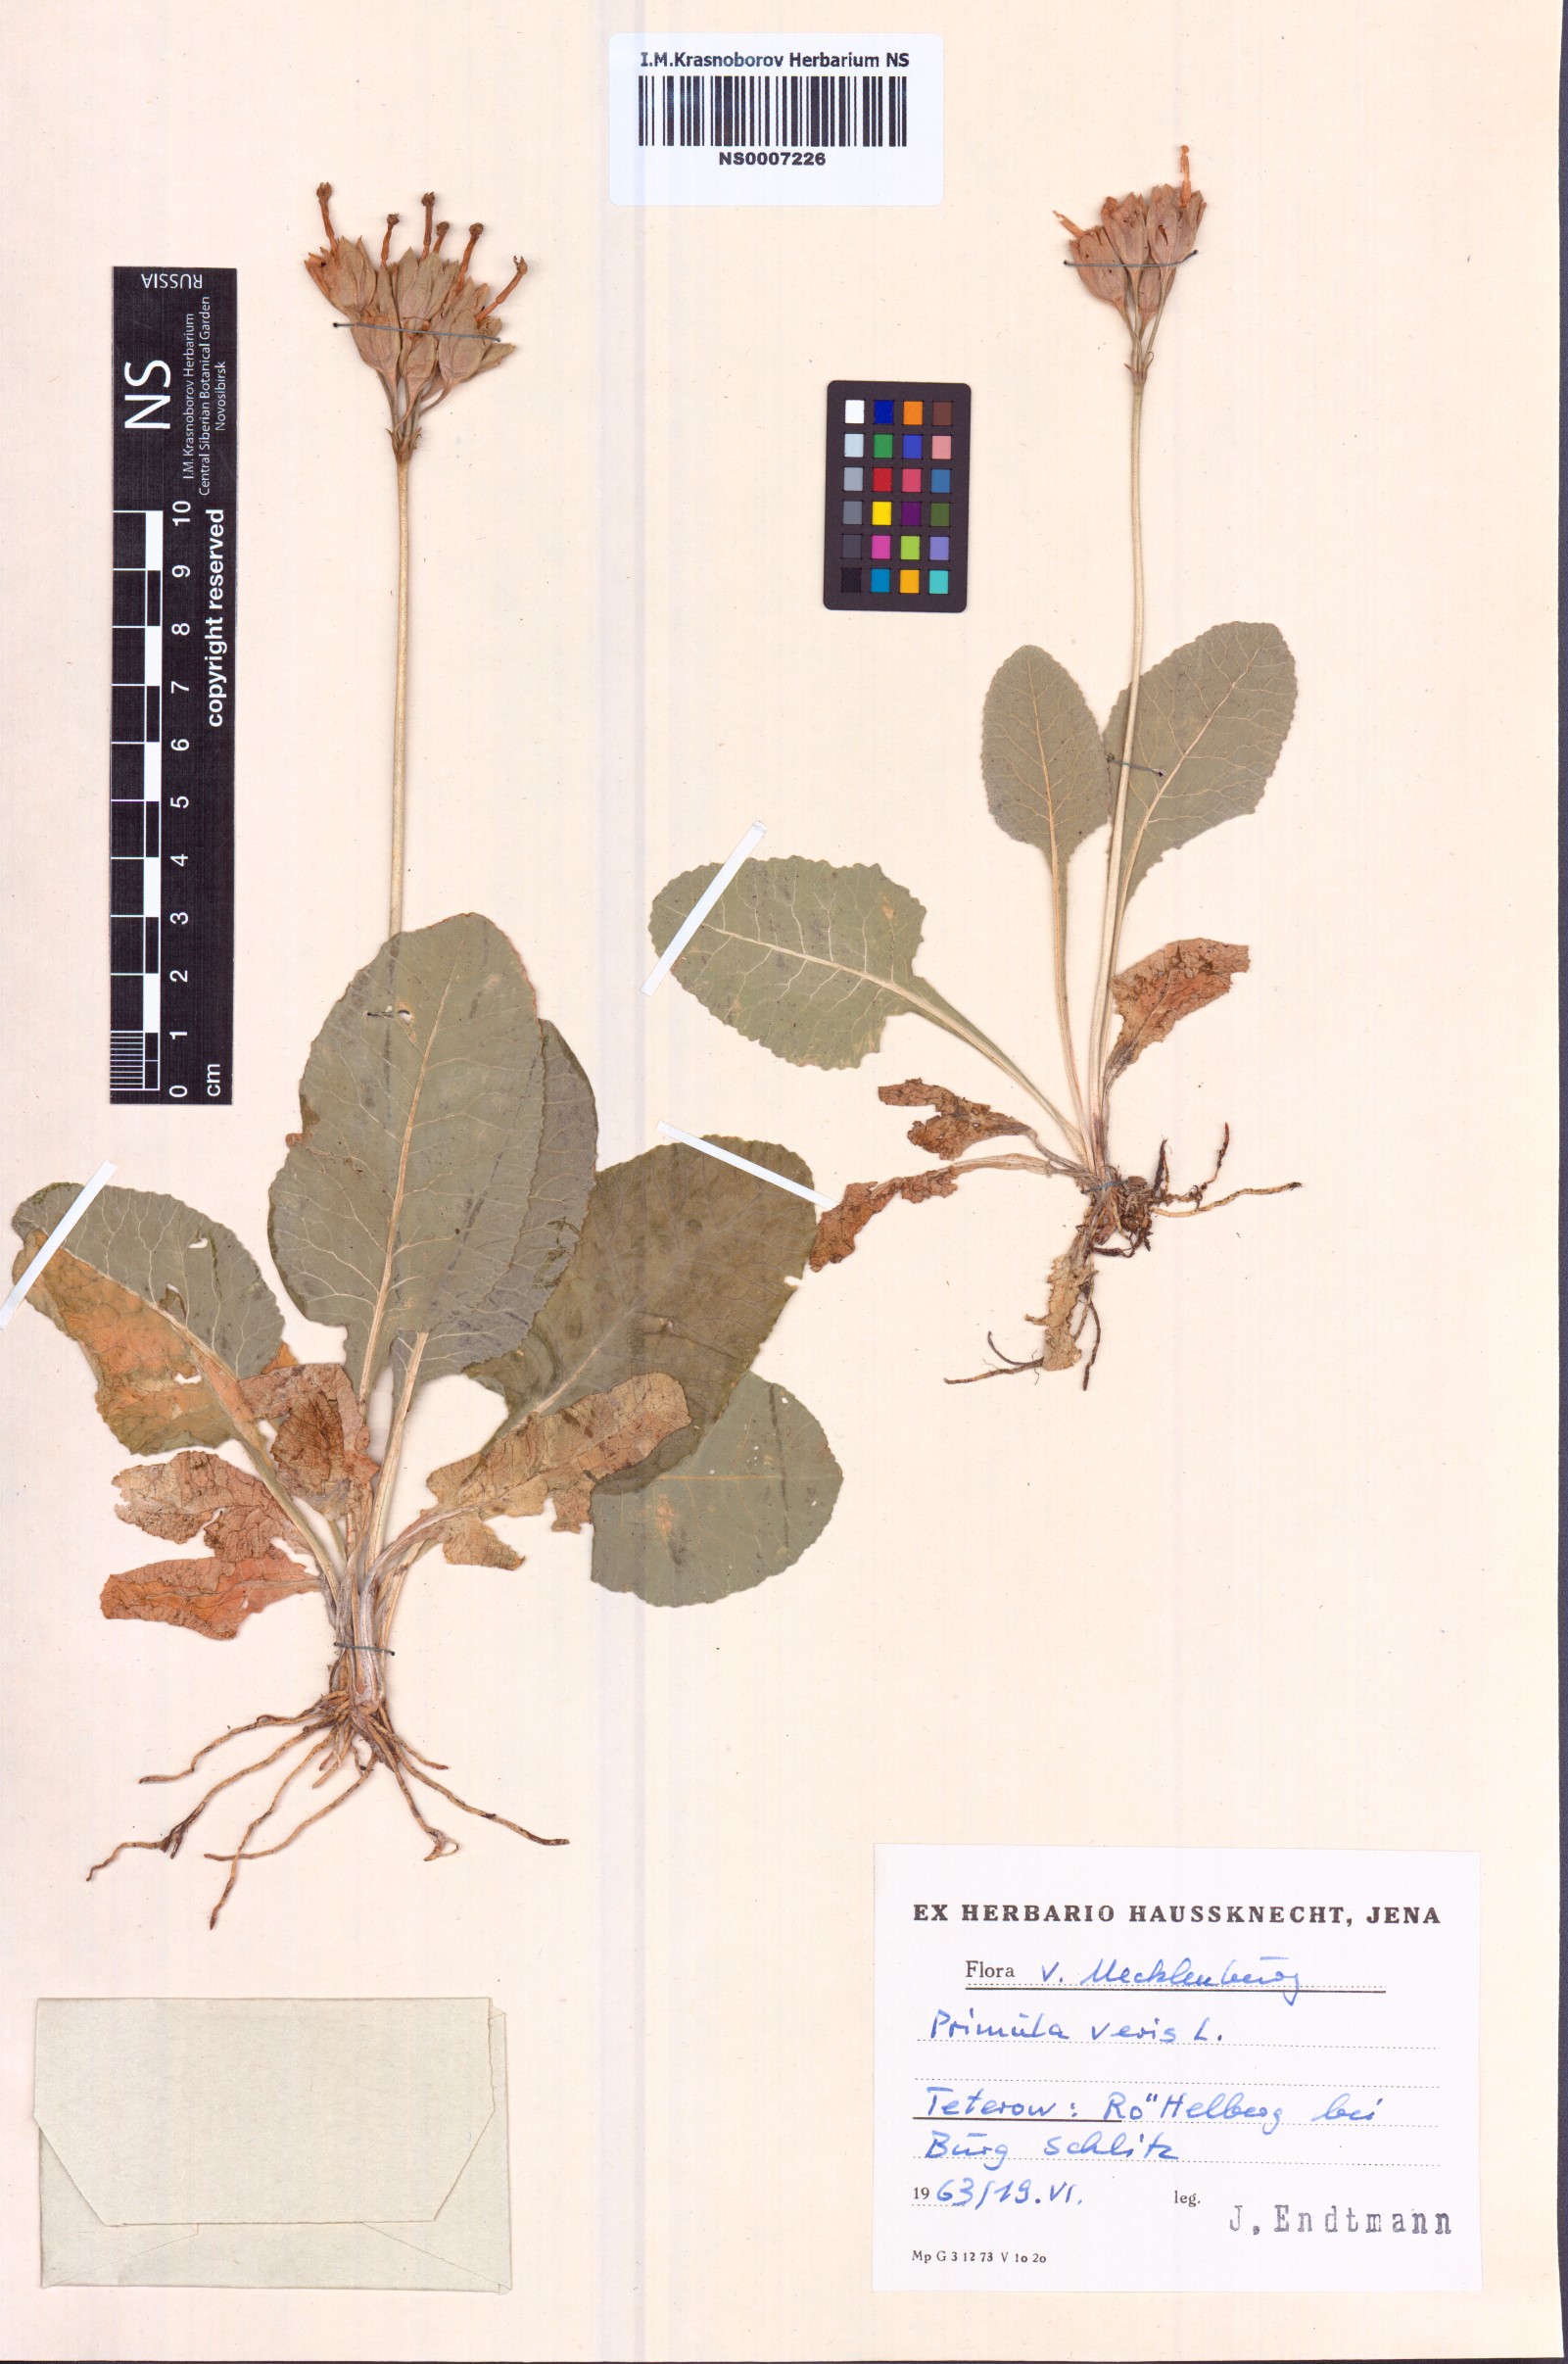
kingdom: Plantae
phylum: Tracheophyta
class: Magnoliopsida
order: Ericales
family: Primulaceae
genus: Primula
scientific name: Primula veris
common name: Cowslip
